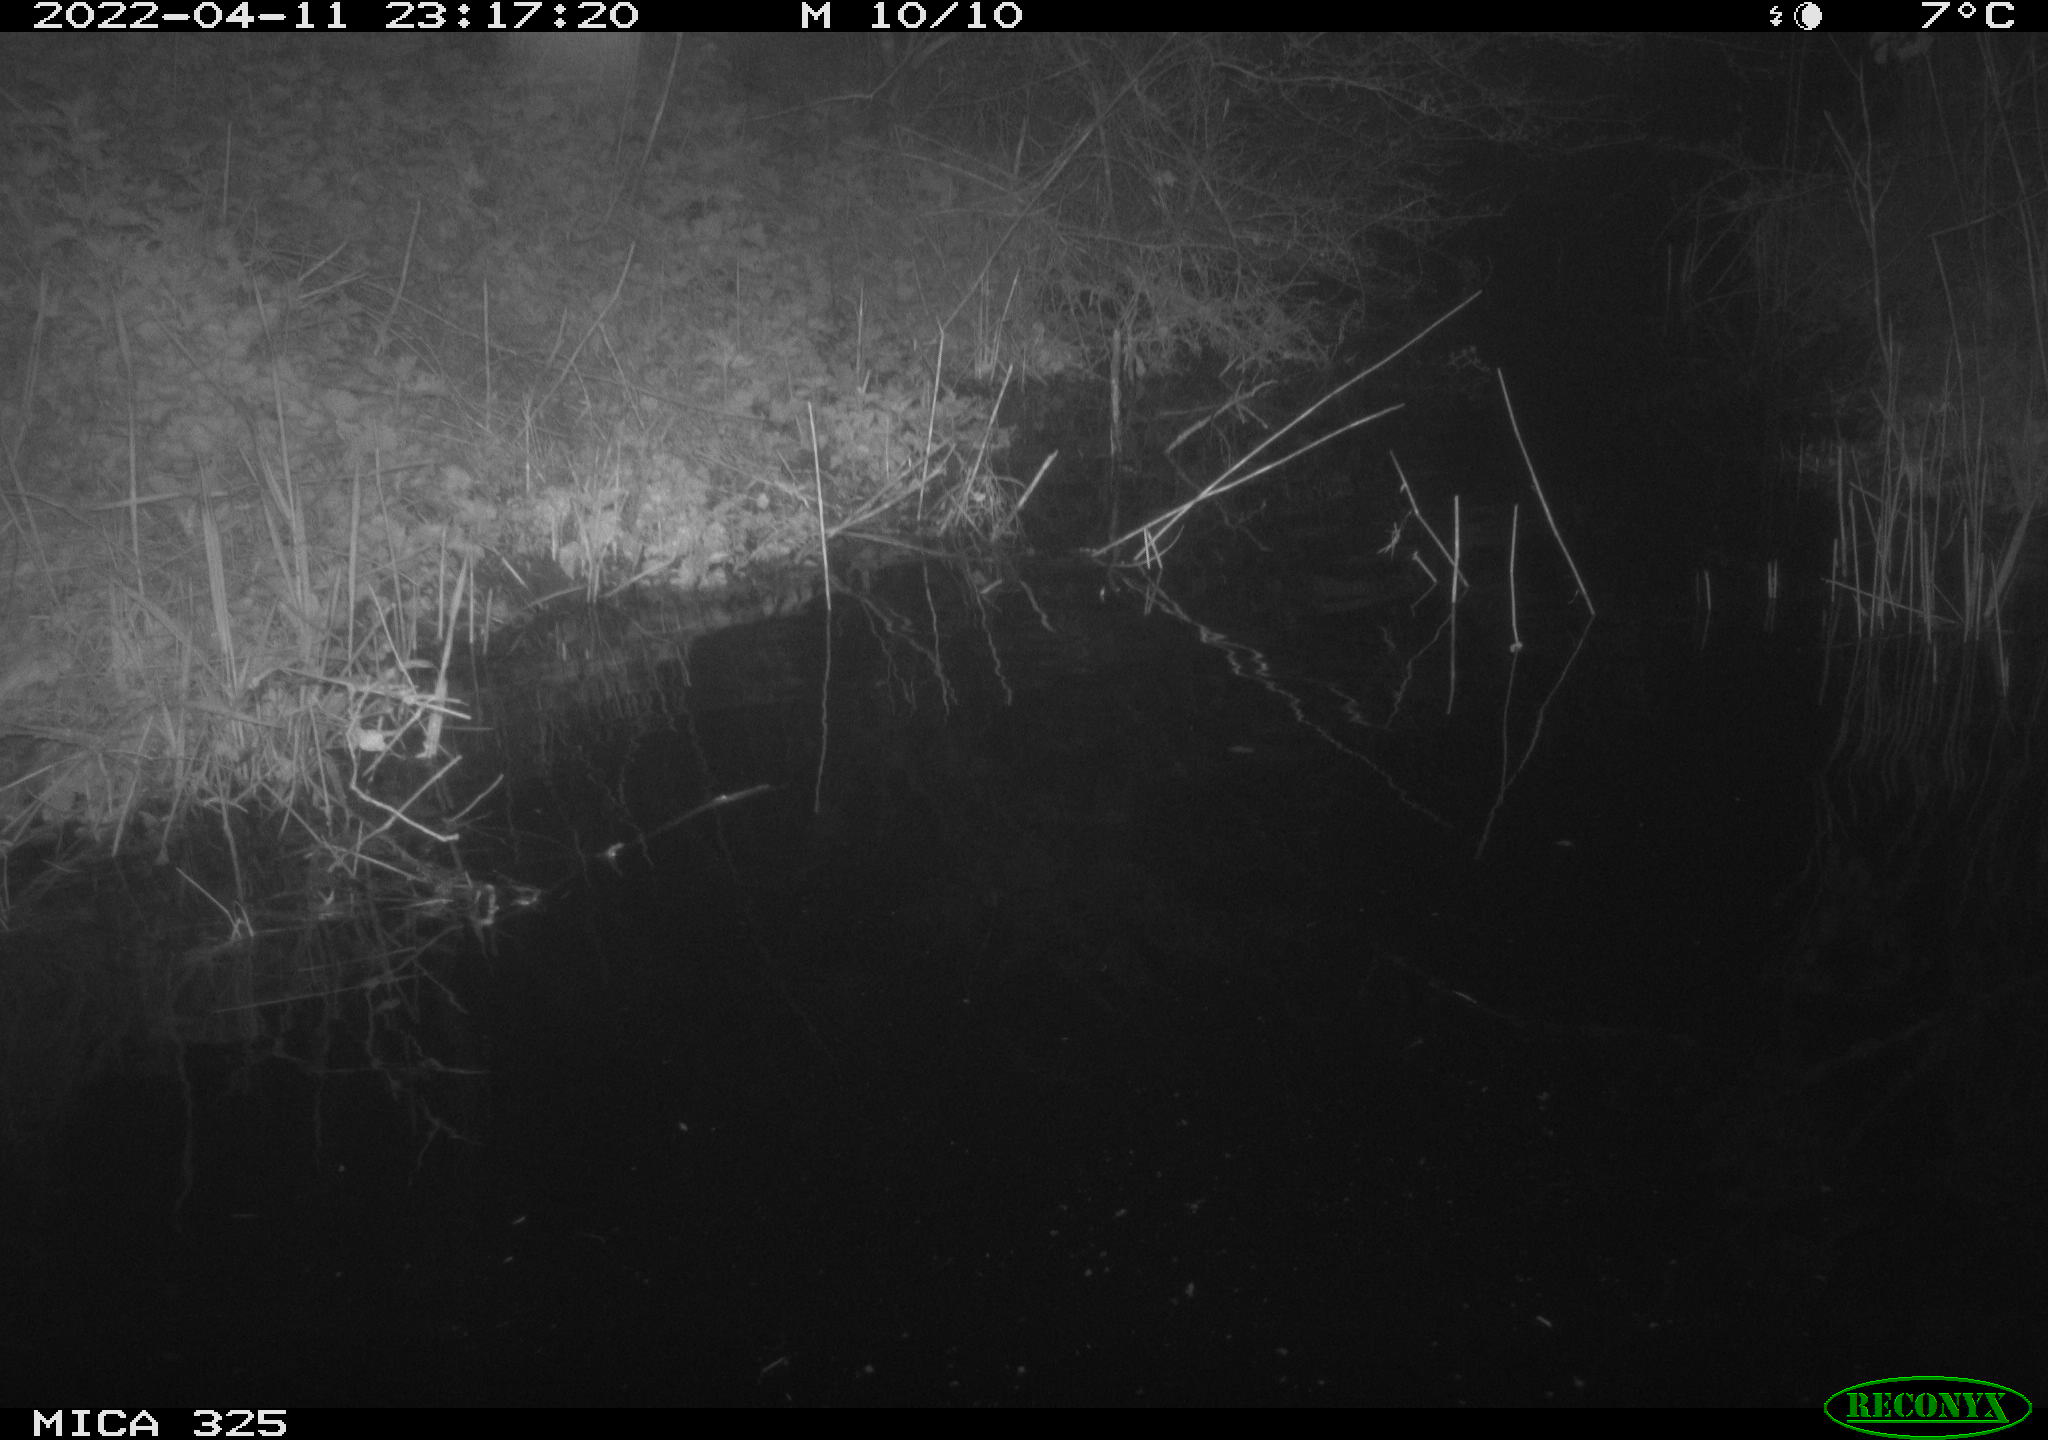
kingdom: Animalia
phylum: Chordata
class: Aves
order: Anseriformes
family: Anatidae
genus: Anas
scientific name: Anas platyrhynchos
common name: Mallard
